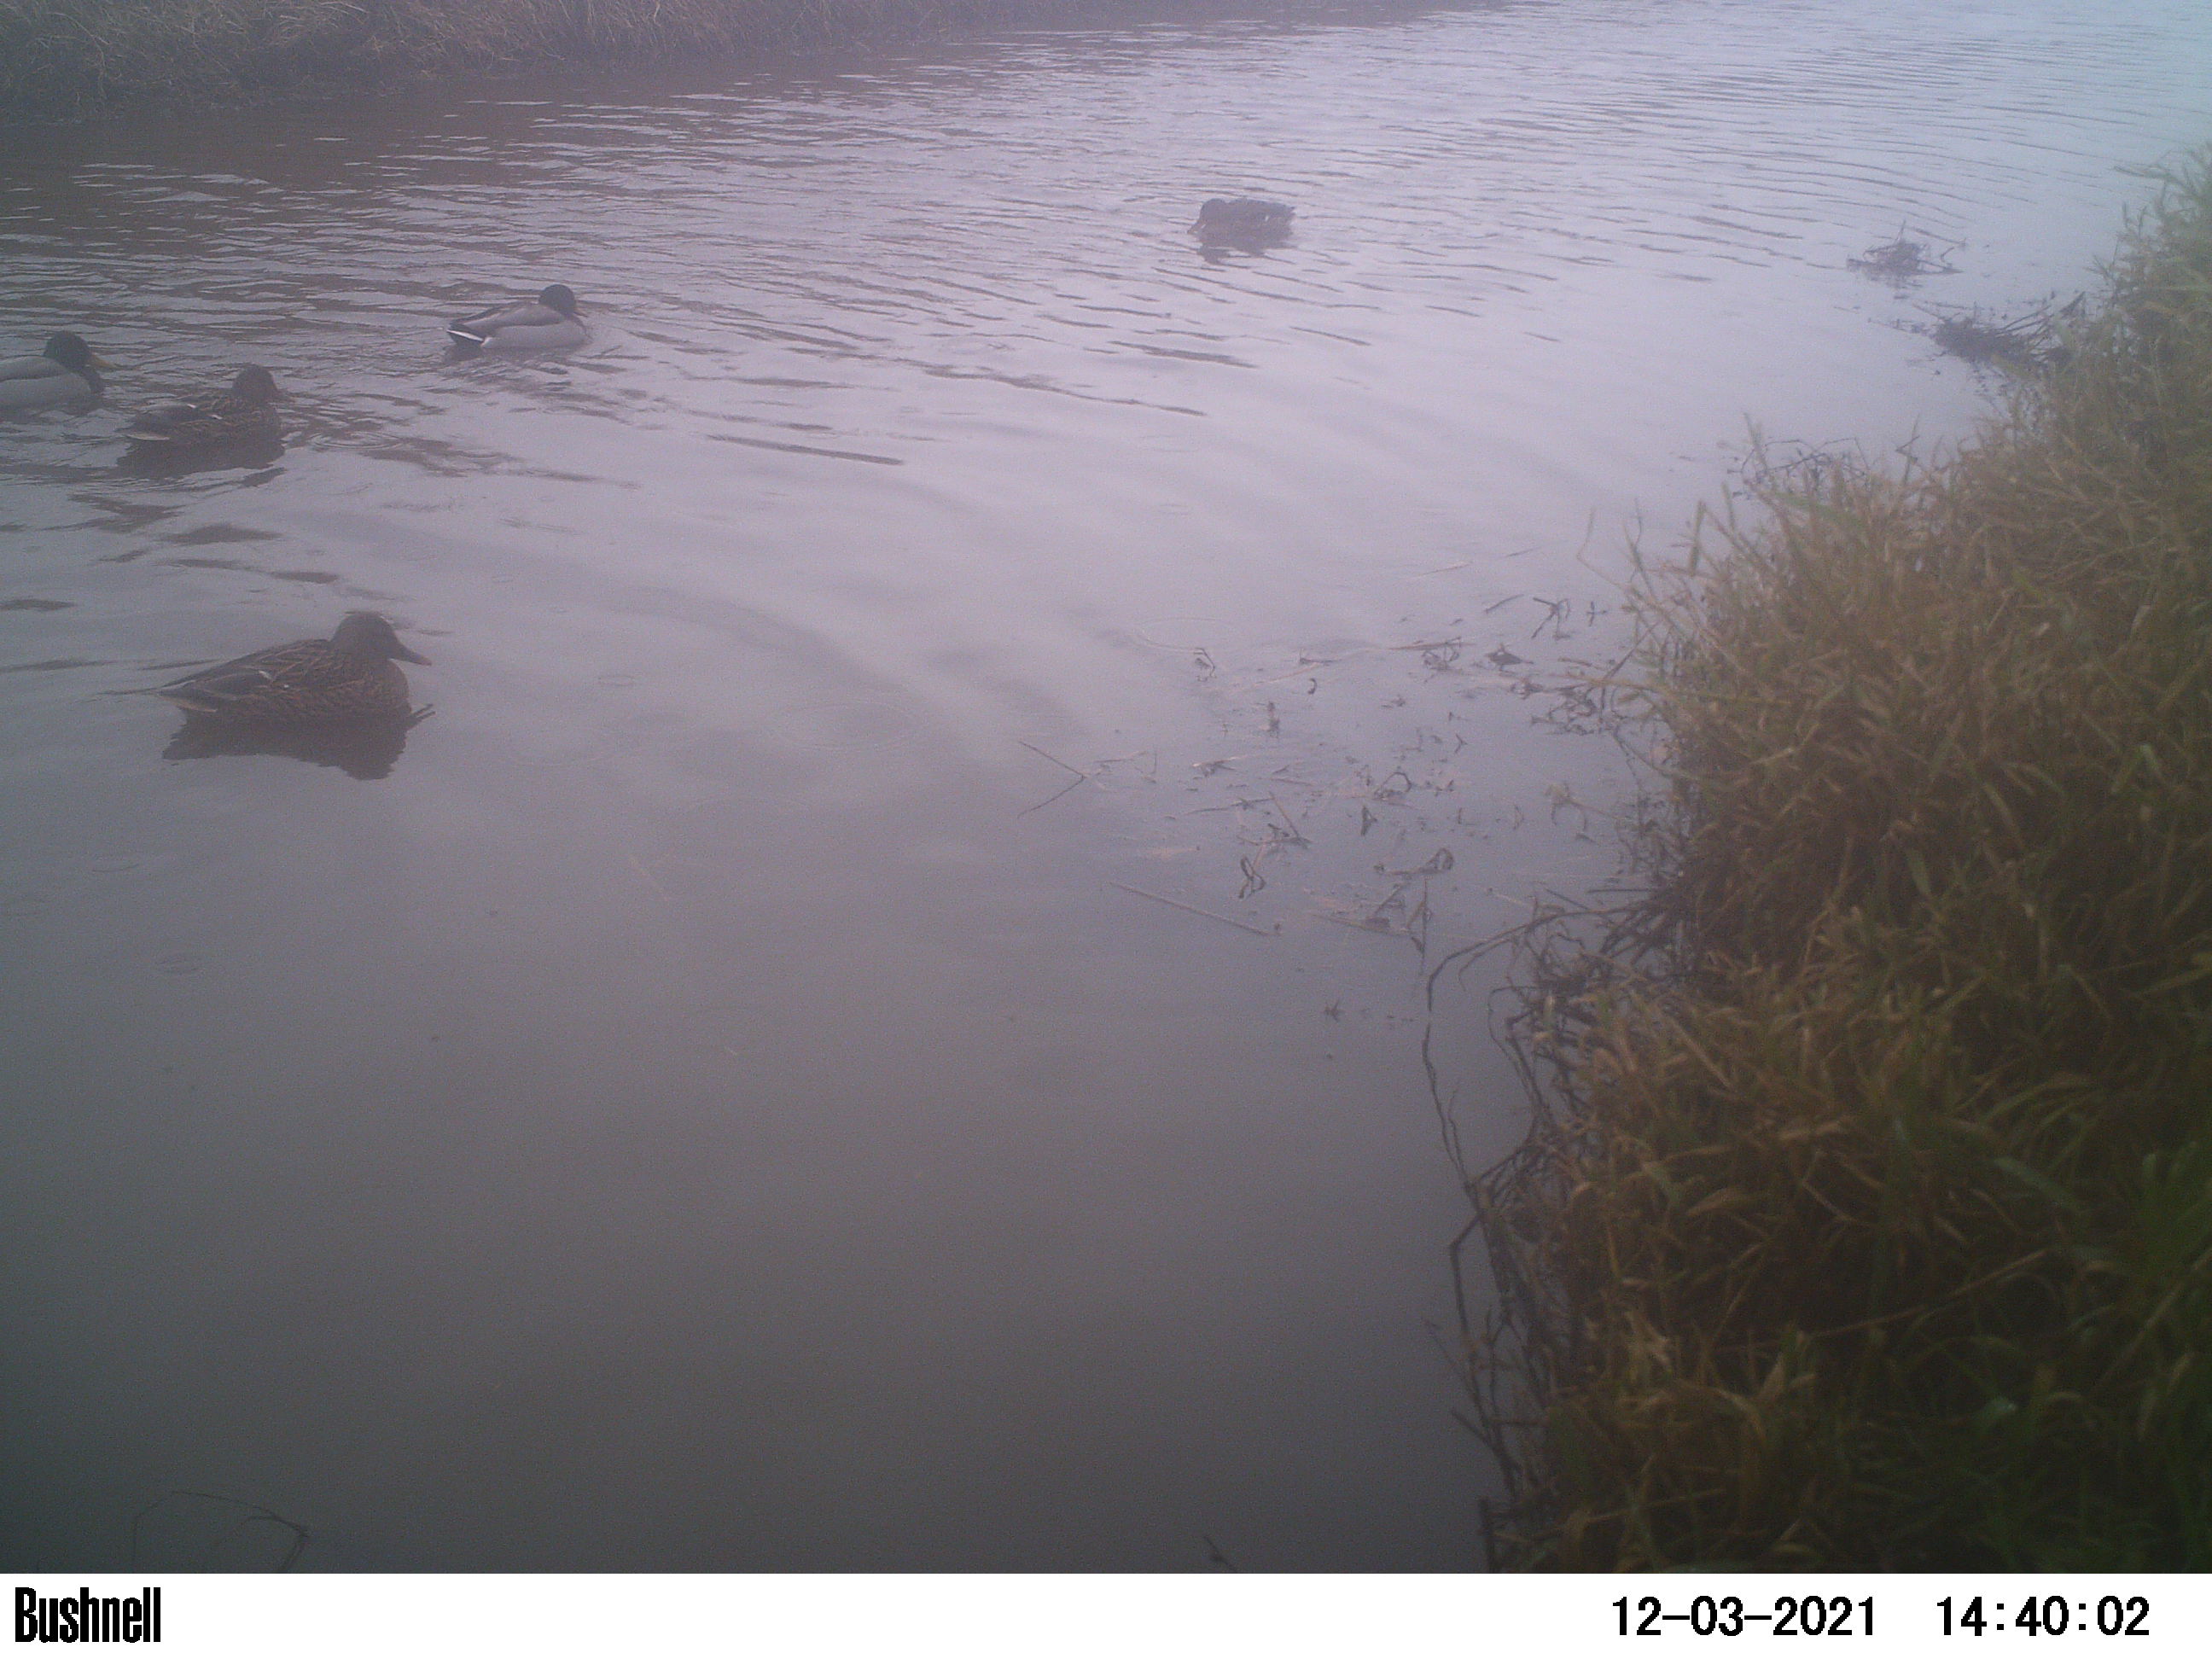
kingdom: Animalia
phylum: Chordata
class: Aves
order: Anseriformes
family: Anatidae
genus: Anas
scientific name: Anas
